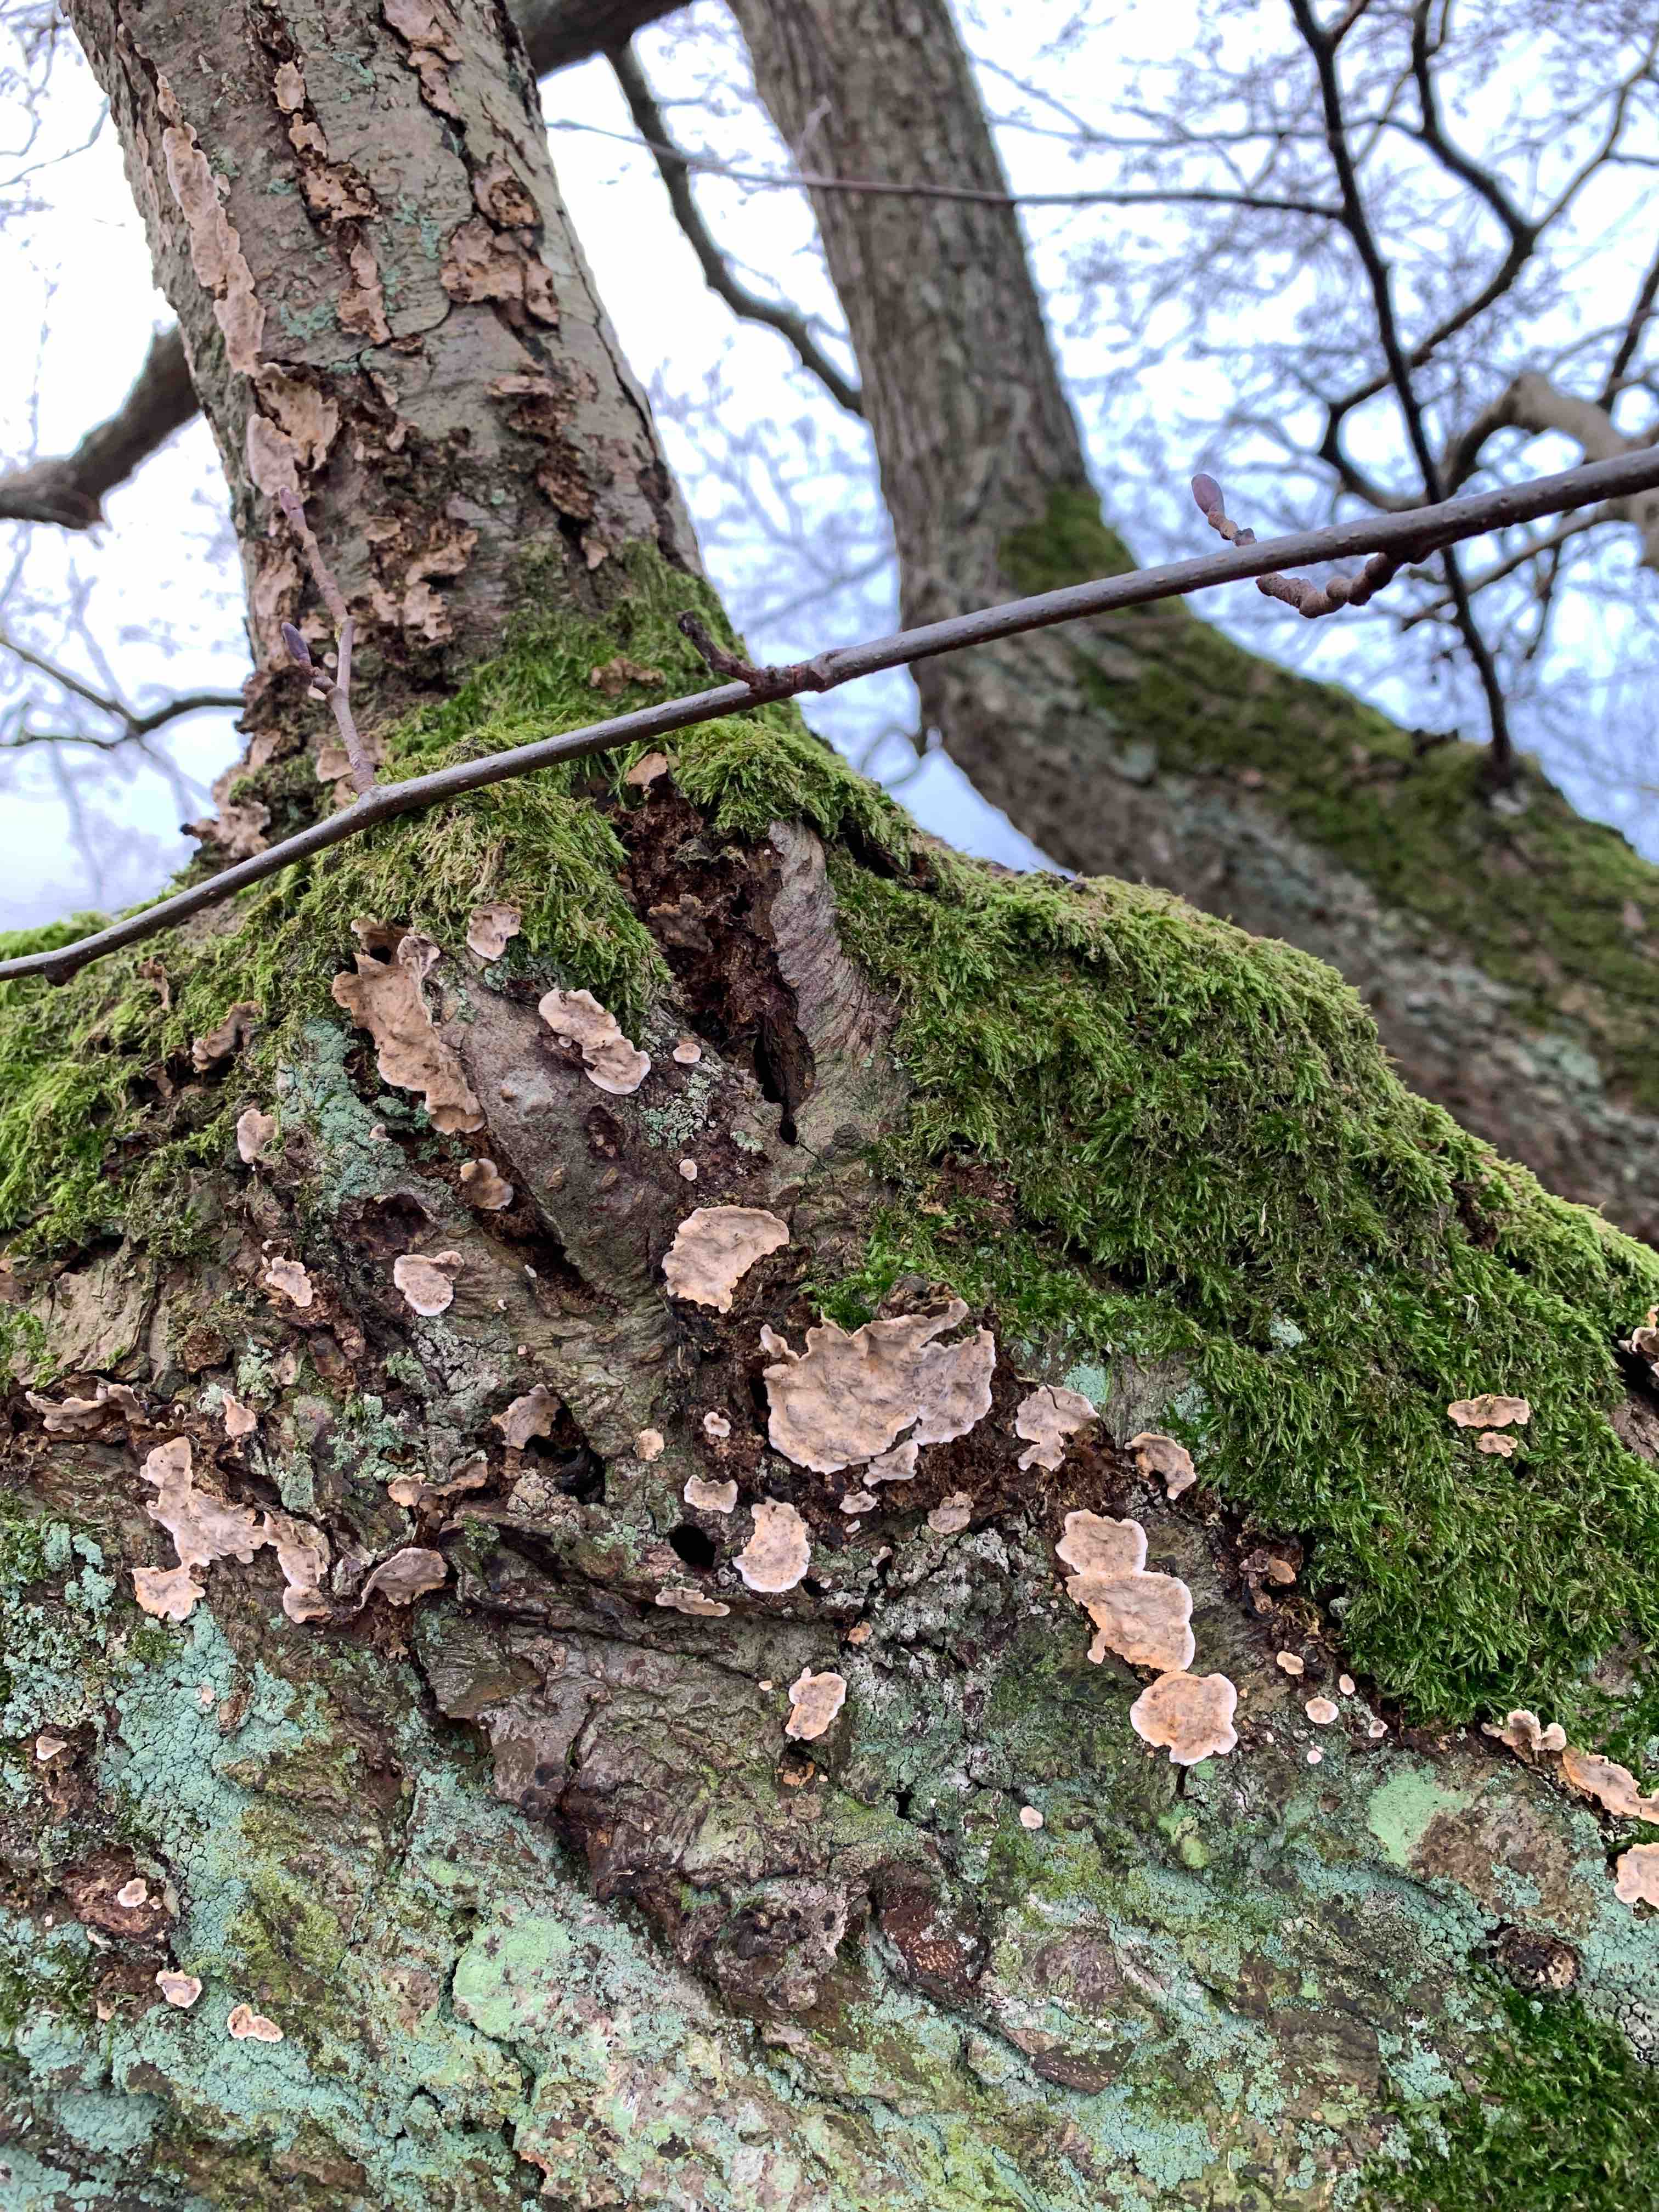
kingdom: Fungi
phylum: Basidiomycota
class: Agaricomycetes
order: Russulales
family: Stereaceae
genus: Stereum
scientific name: Stereum rugosum
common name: rynket lædersvamp
